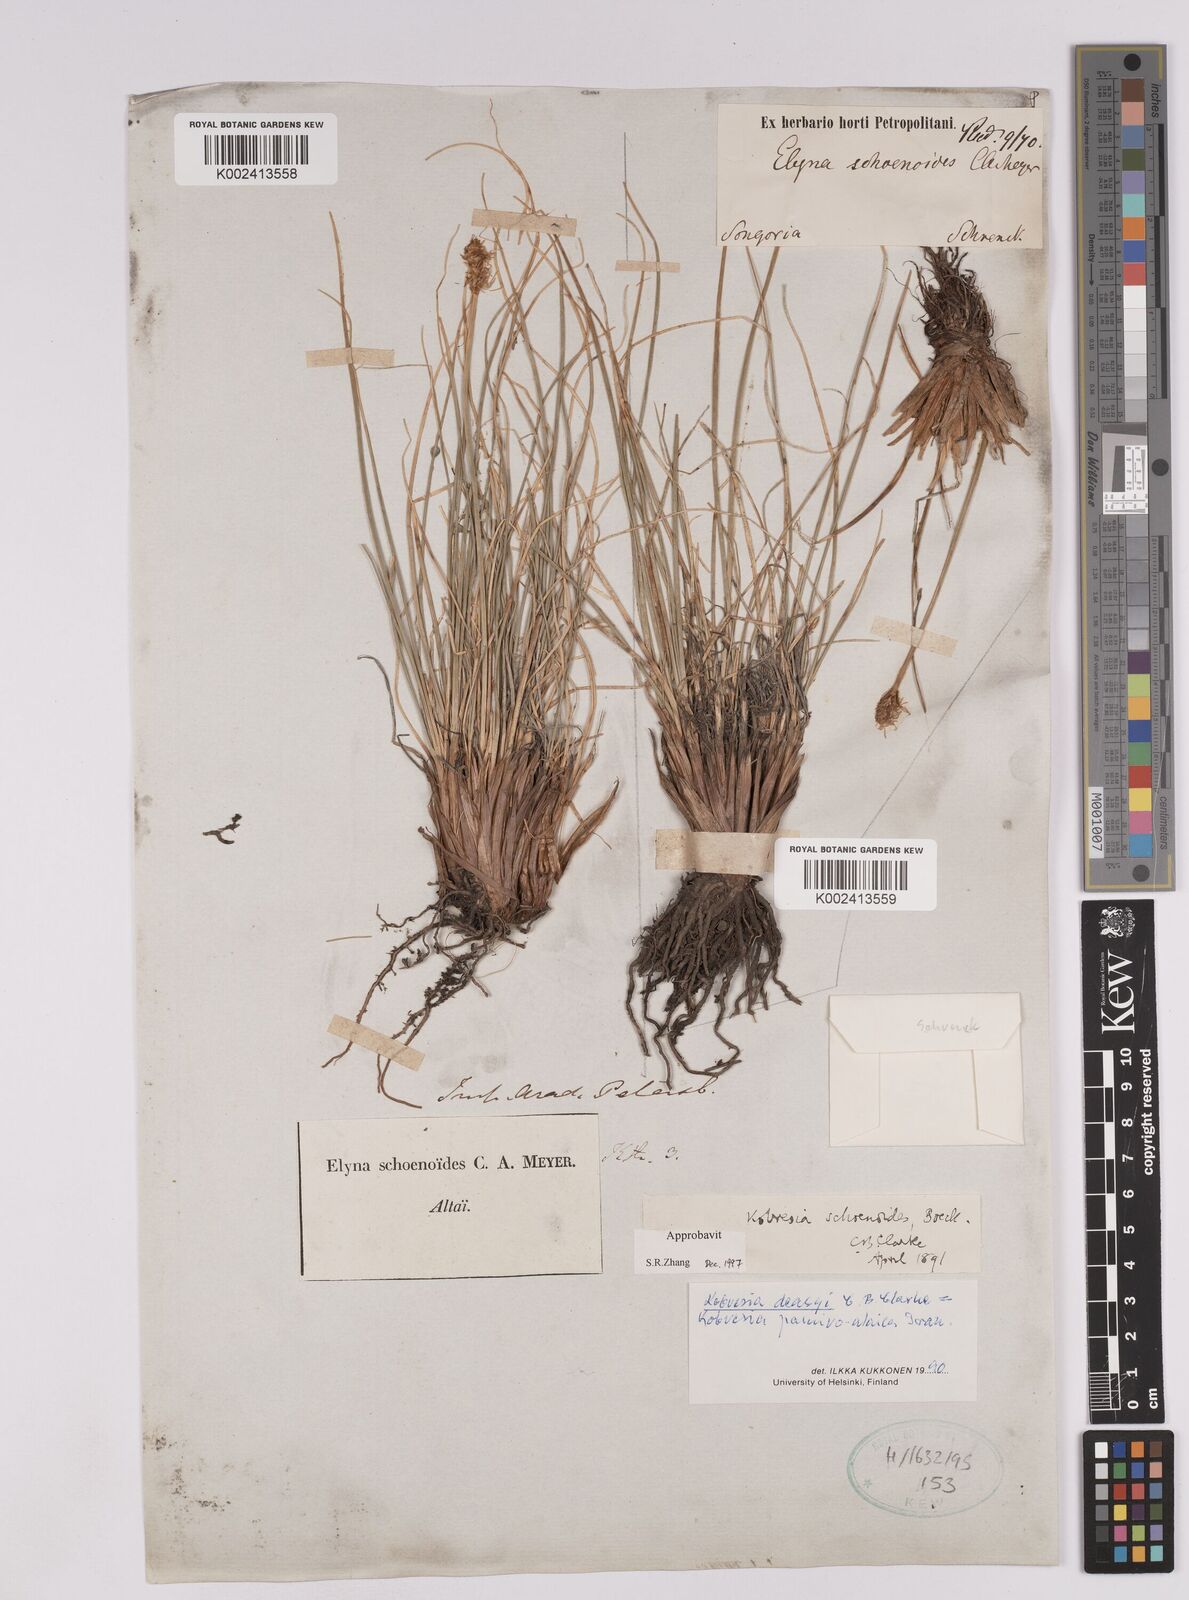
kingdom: Plantae
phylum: Tracheophyta
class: Liliopsida
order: Poales
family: Cyperaceae
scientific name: Cyperaceae
